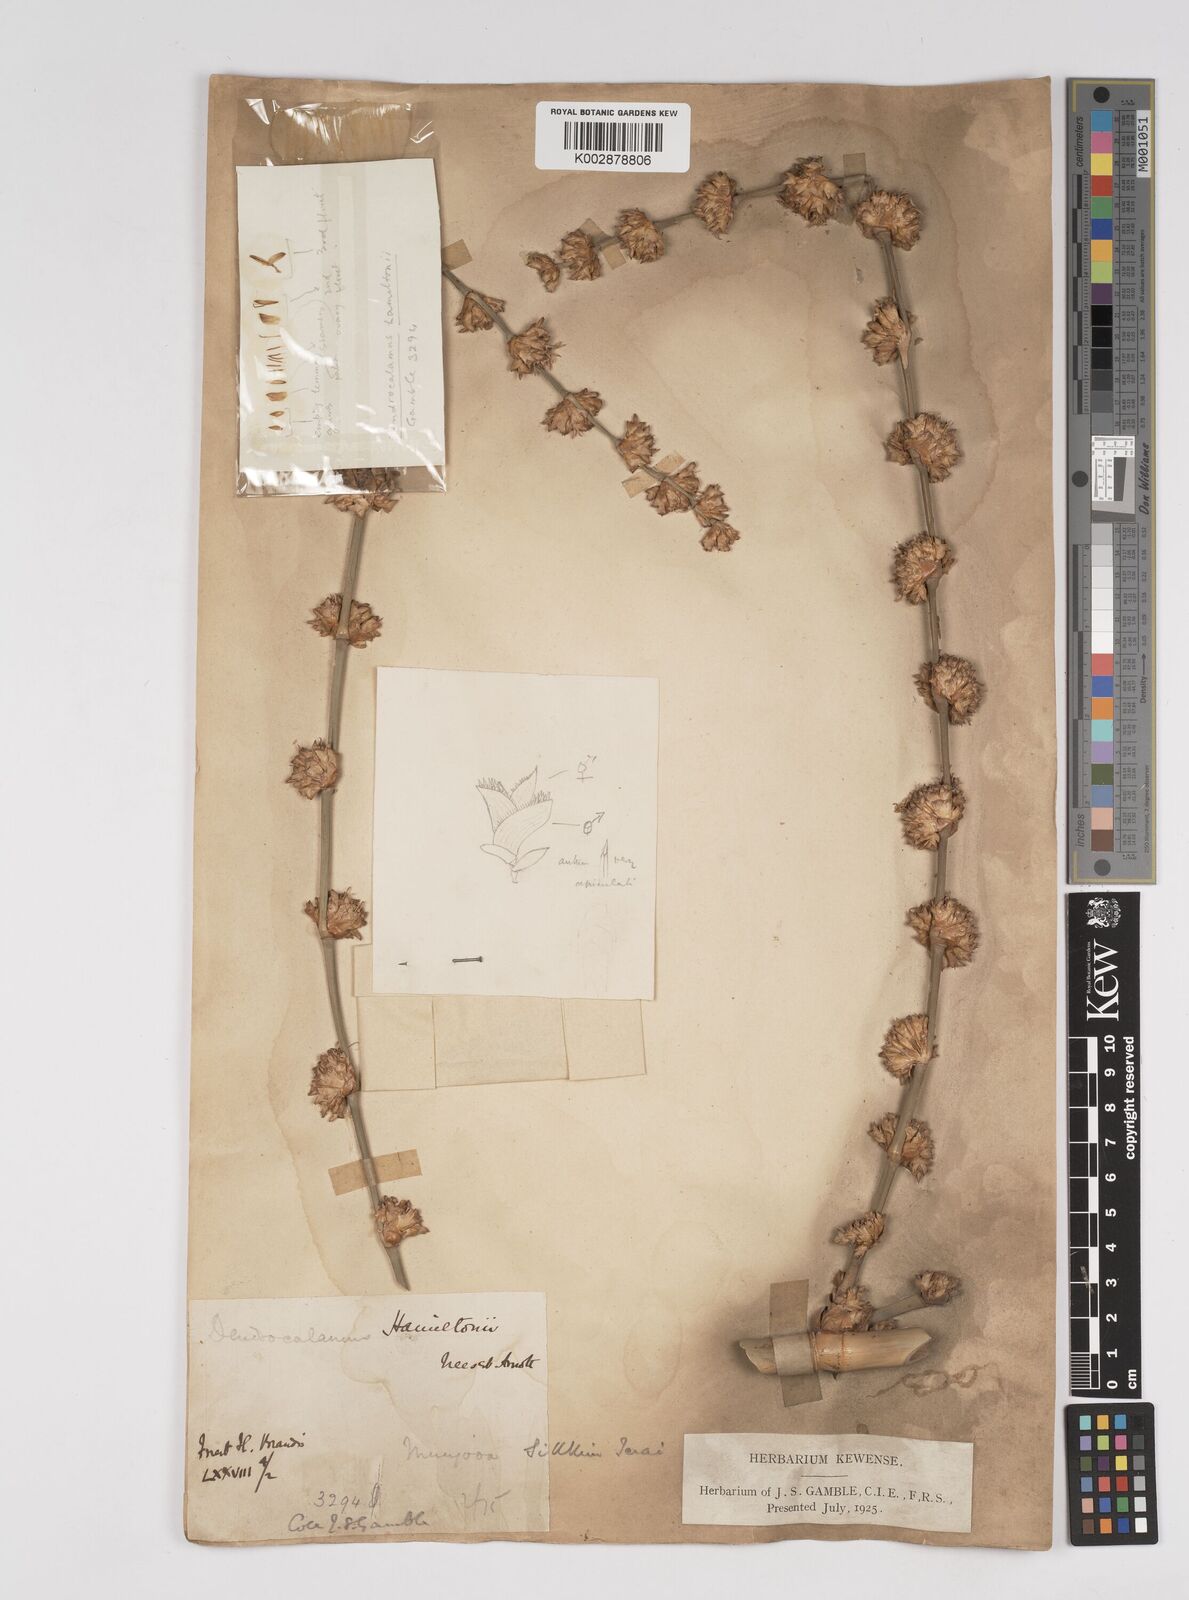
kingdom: Plantae
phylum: Tracheophyta
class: Liliopsida
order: Poales
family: Poaceae
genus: Dendrocalamus
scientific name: Dendrocalamus hamiltonii
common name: Tama bamboo
